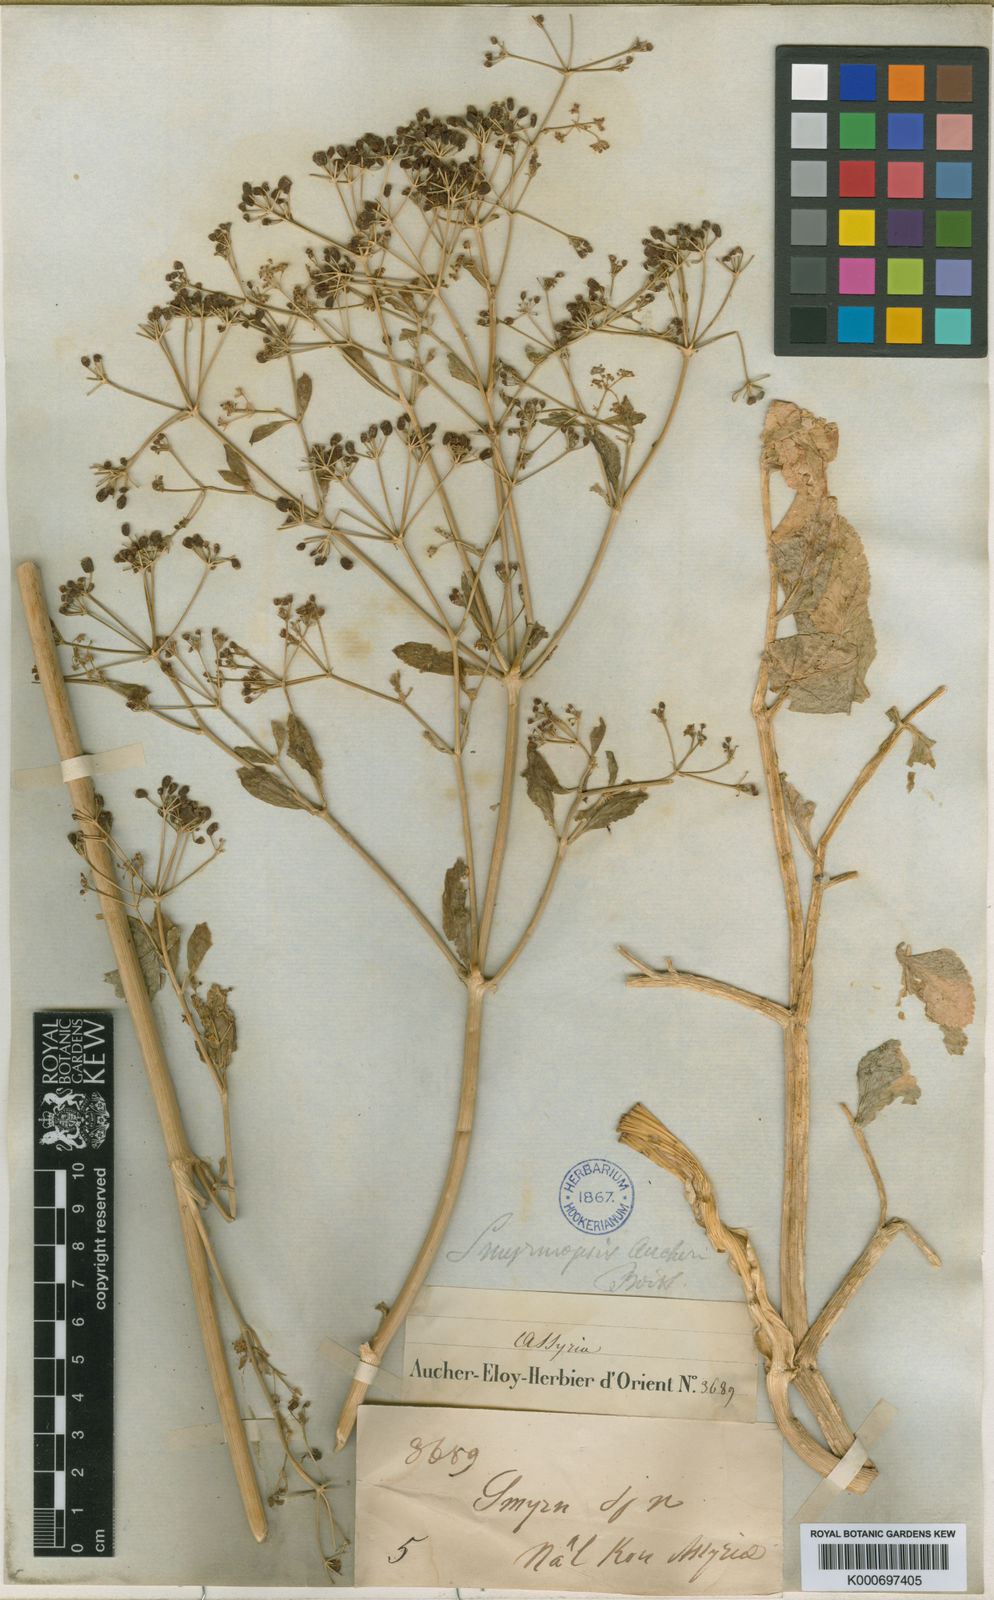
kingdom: Plantae
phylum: Tracheophyta
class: Magnoliopsida
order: Apiales
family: Apiaceae
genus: Smyrniopsis
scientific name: Smyrniopsis aucheri
